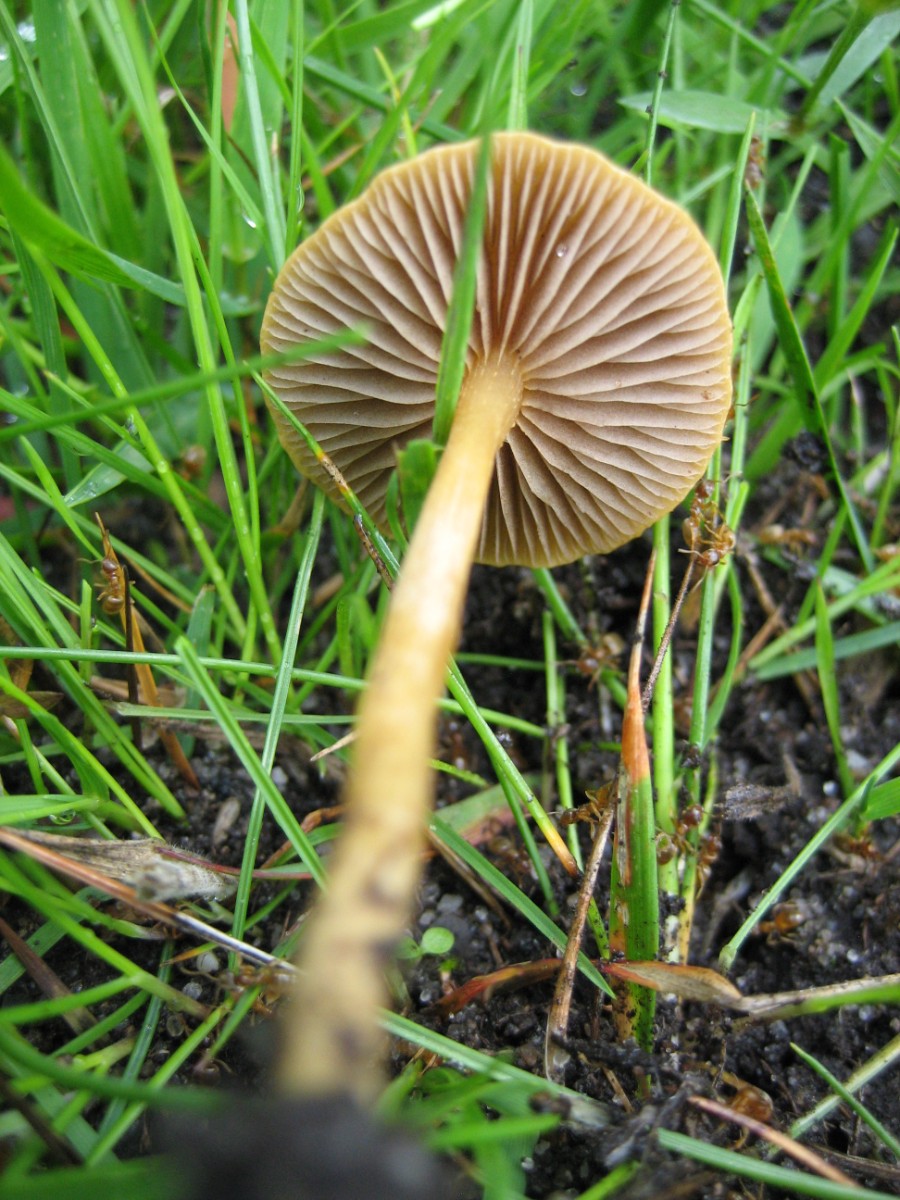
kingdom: Fungi
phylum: Basidiomycota
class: Agaricomycetes
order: Agaricales
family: Strophariaceae
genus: Agrocybe
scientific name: Agrocybe pediades
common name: almindelig agerhat
